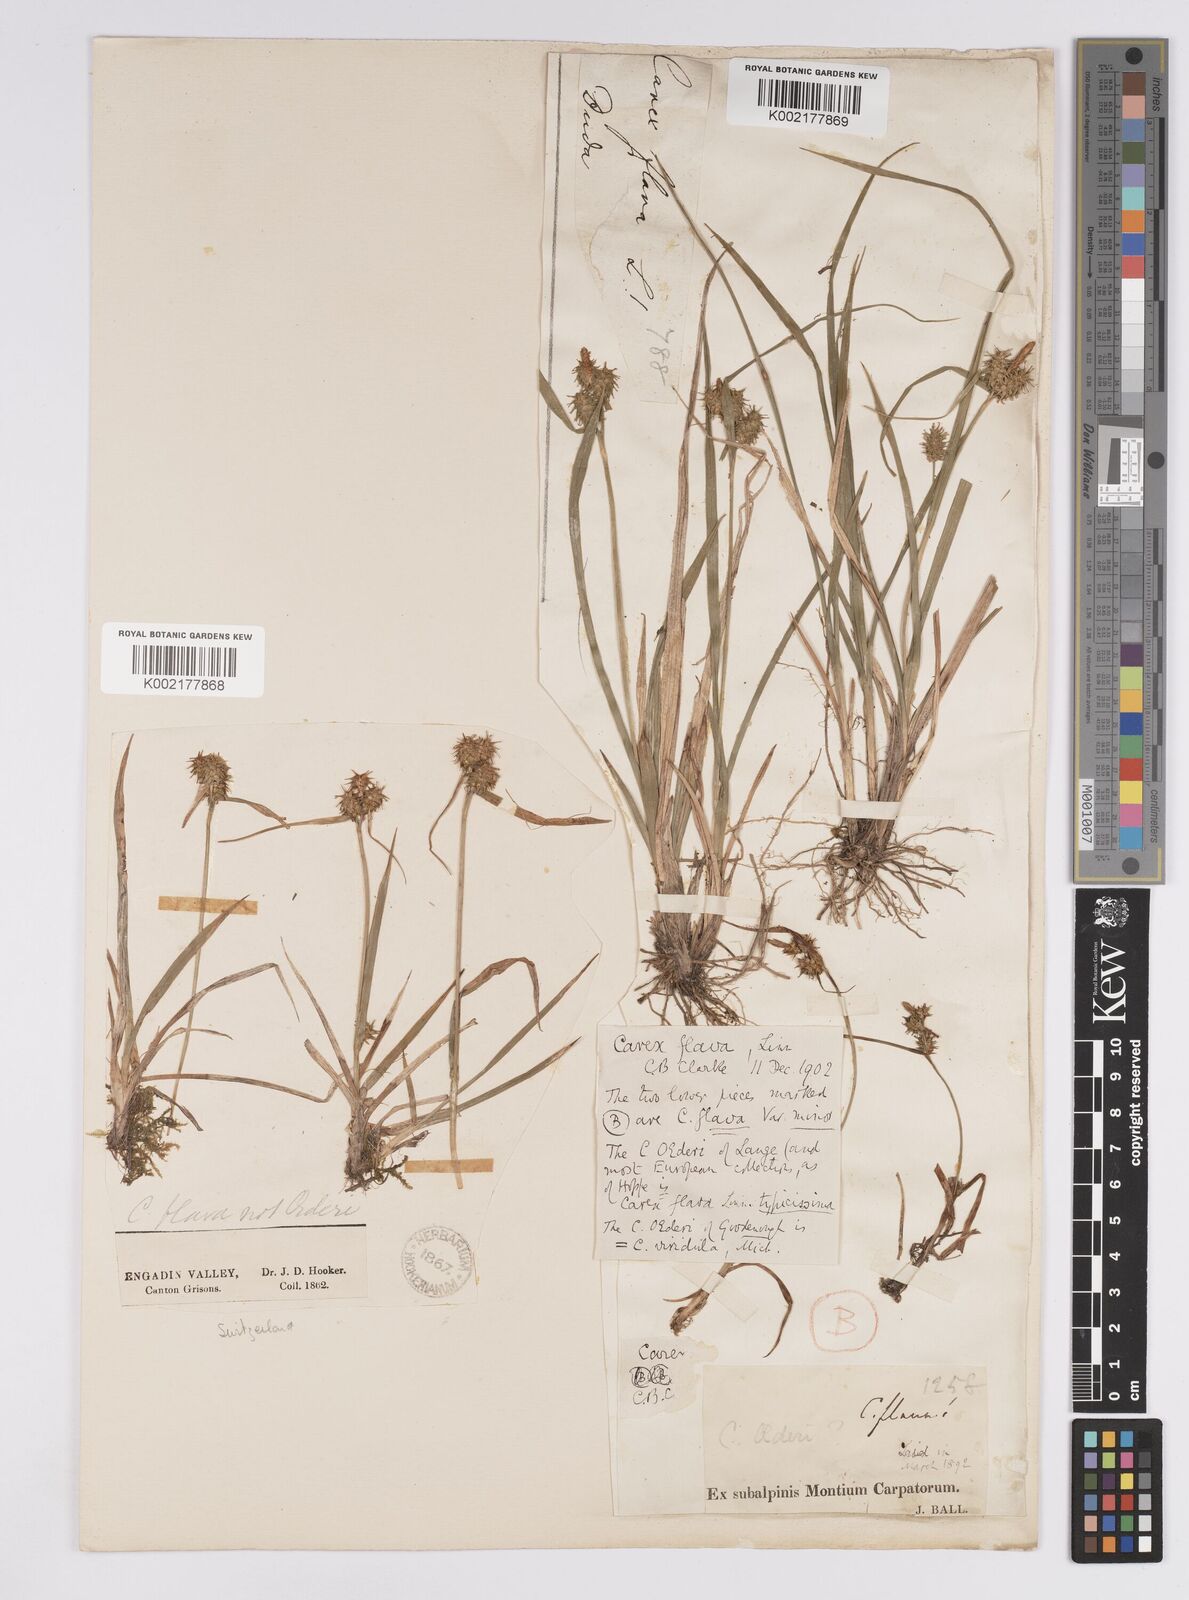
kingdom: Plantae
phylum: Tracheophyta
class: Liliopsida
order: Poales
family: Cyperaceae
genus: Carex
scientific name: Carex flava
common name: Large yellow-sedge
